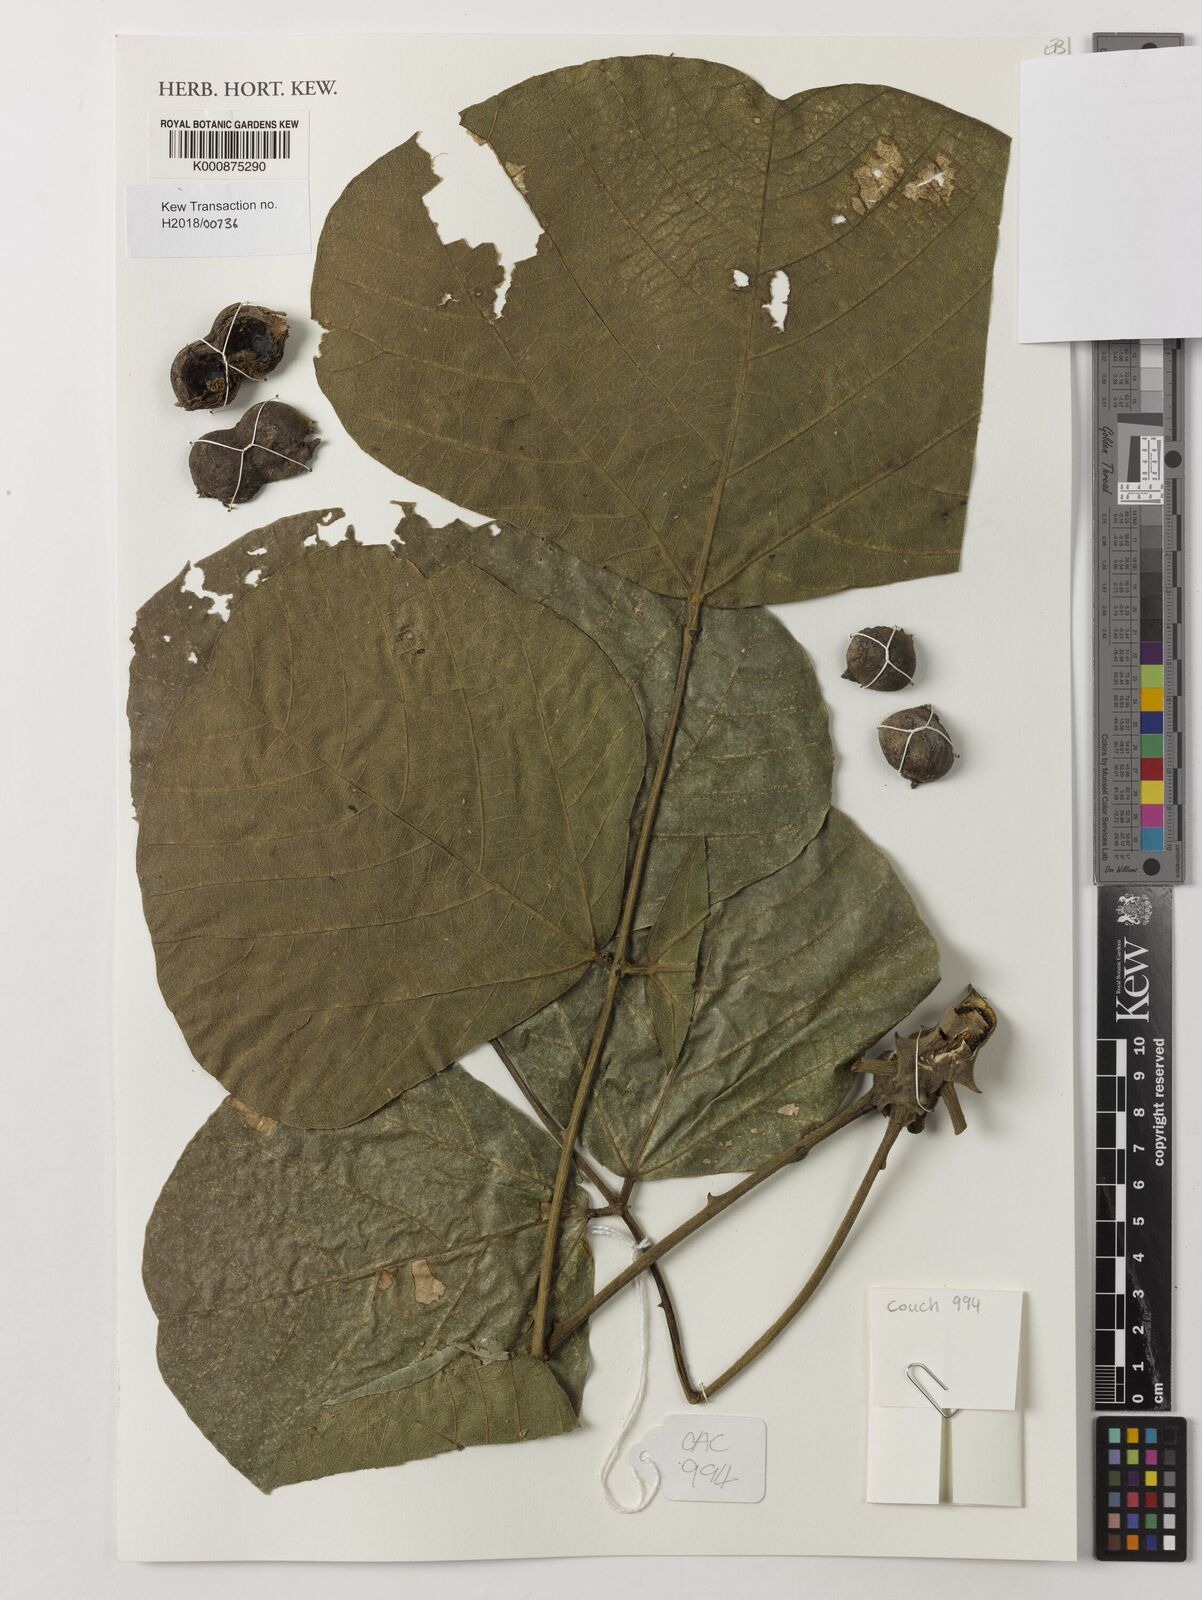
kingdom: Plantae
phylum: Tracheophyta
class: Magnoliopsida
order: Fabales
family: Fabaceae
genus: Erythrina
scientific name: Erythrina sigmoidea
